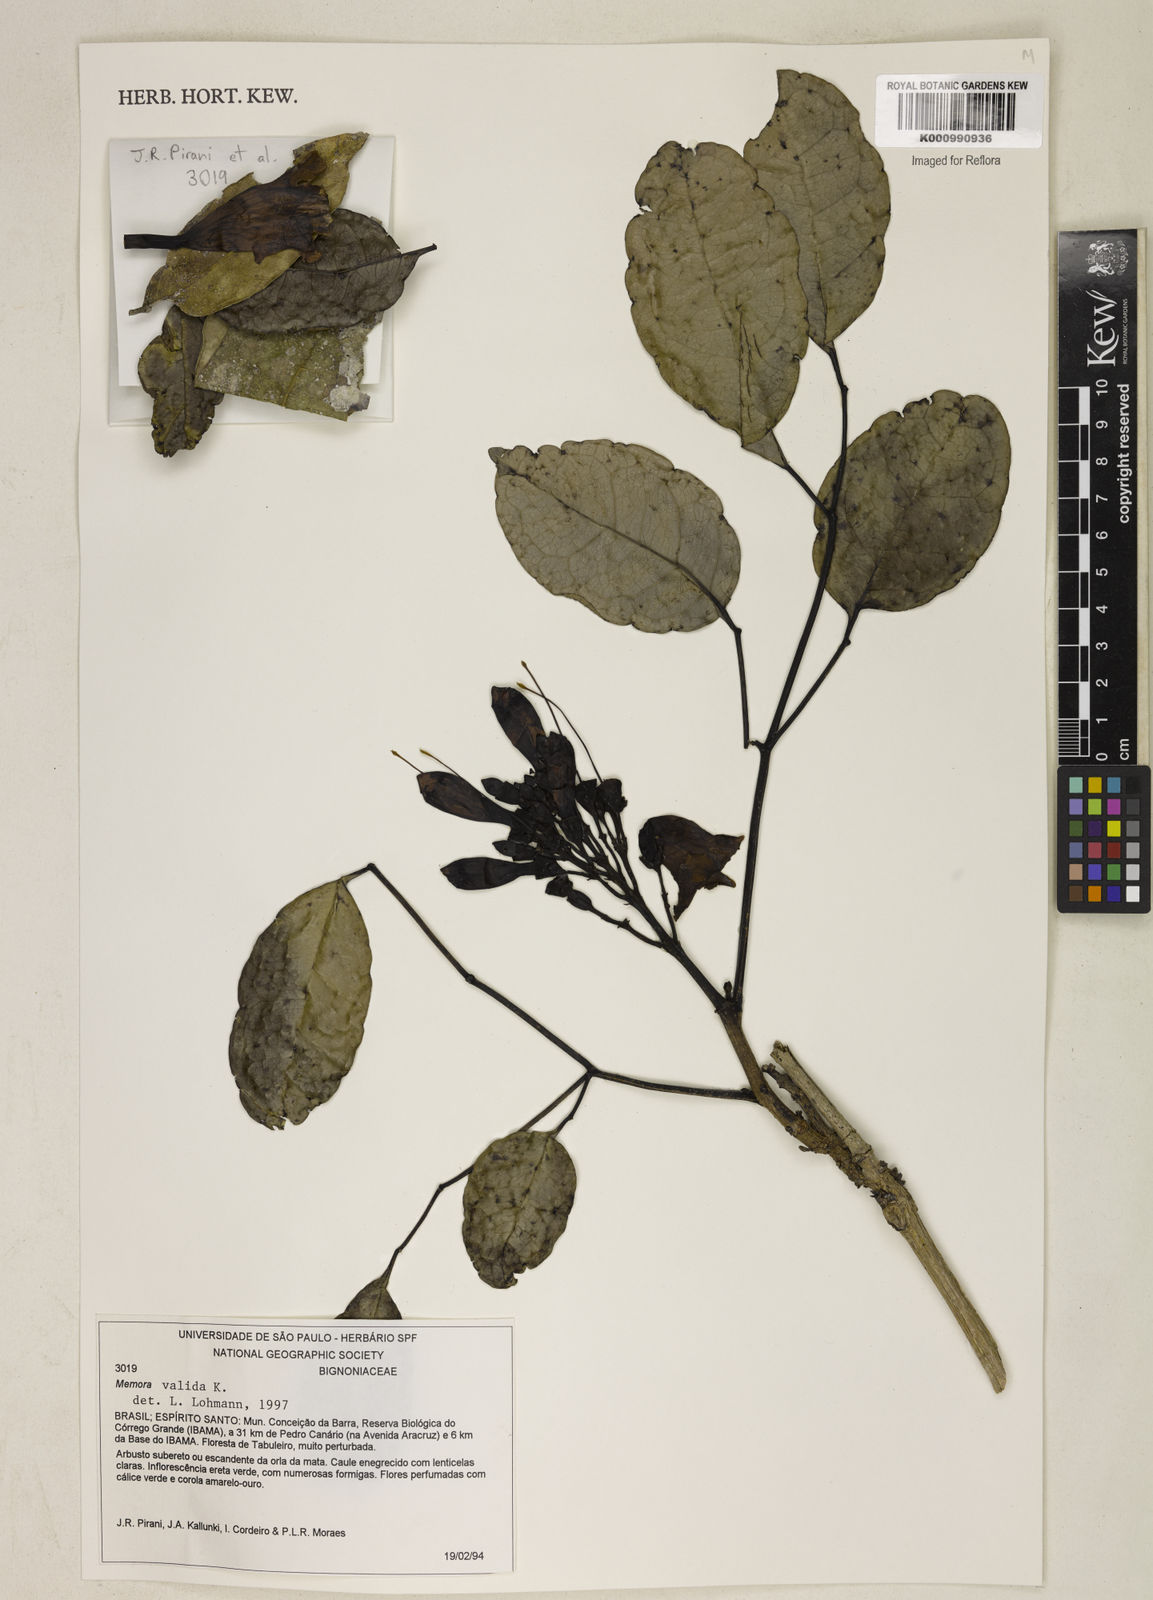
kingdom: Plantae
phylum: Tracheophyta
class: Magnoliopsida
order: Lamiales
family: Bignoniaceae
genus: Adenocalymma
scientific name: Adenocalymma validum
